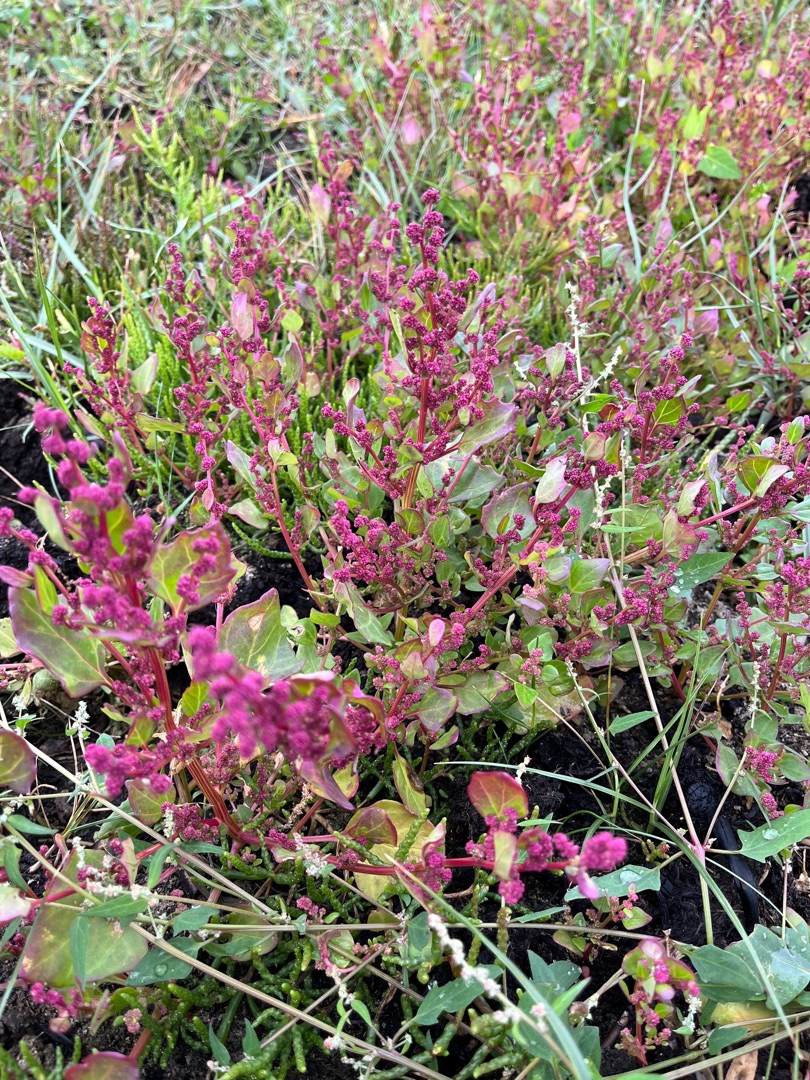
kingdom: Plantae
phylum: Tracheophyta
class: Magnoliopsida
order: Caryophyllales
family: Amaranthaceae
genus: Oxybasis
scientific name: Oxybasis chenopodioides
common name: Drue-gåsefod
